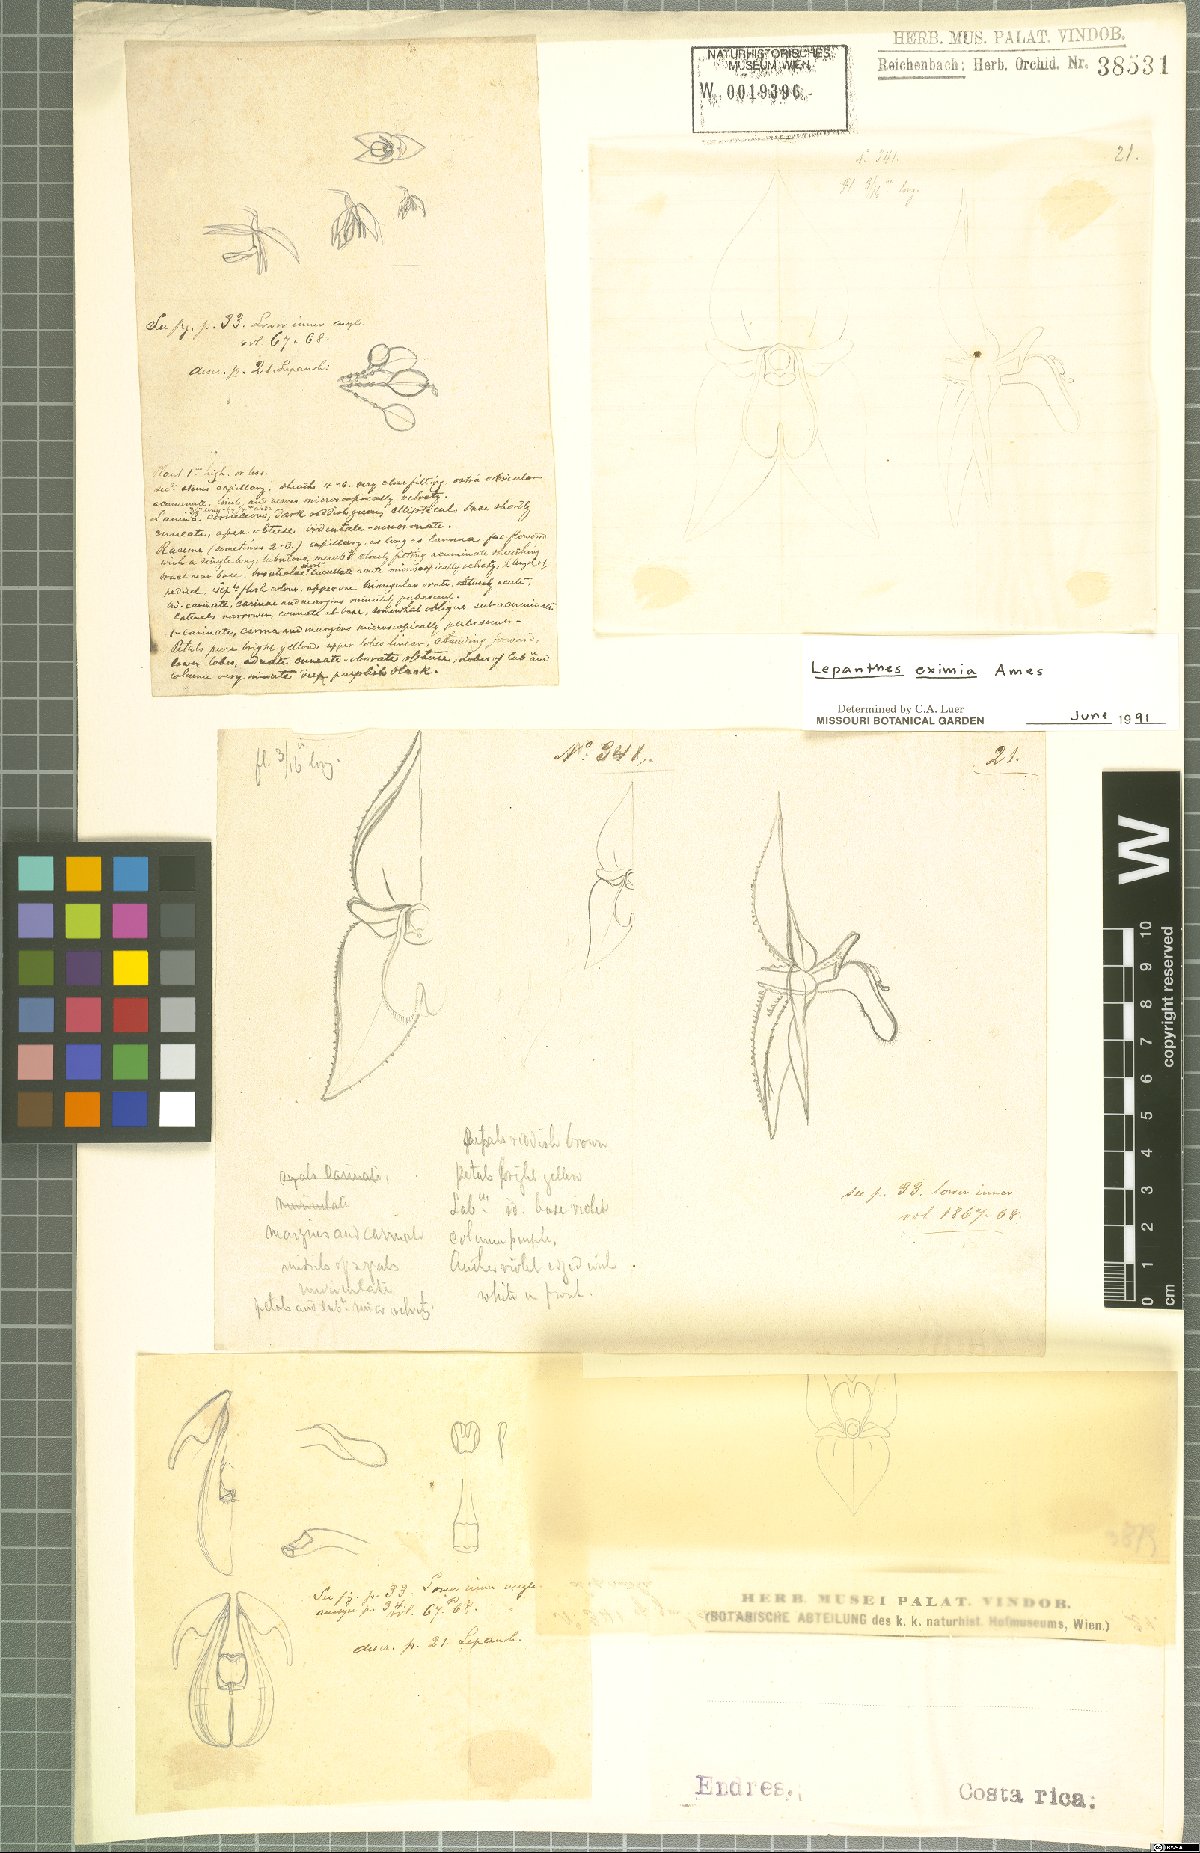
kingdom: Plantae
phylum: Tracheophyta
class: Liliopsida
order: Asparagales
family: Orchidaceae
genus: Lepanthes
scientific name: Lepanthes eximia
